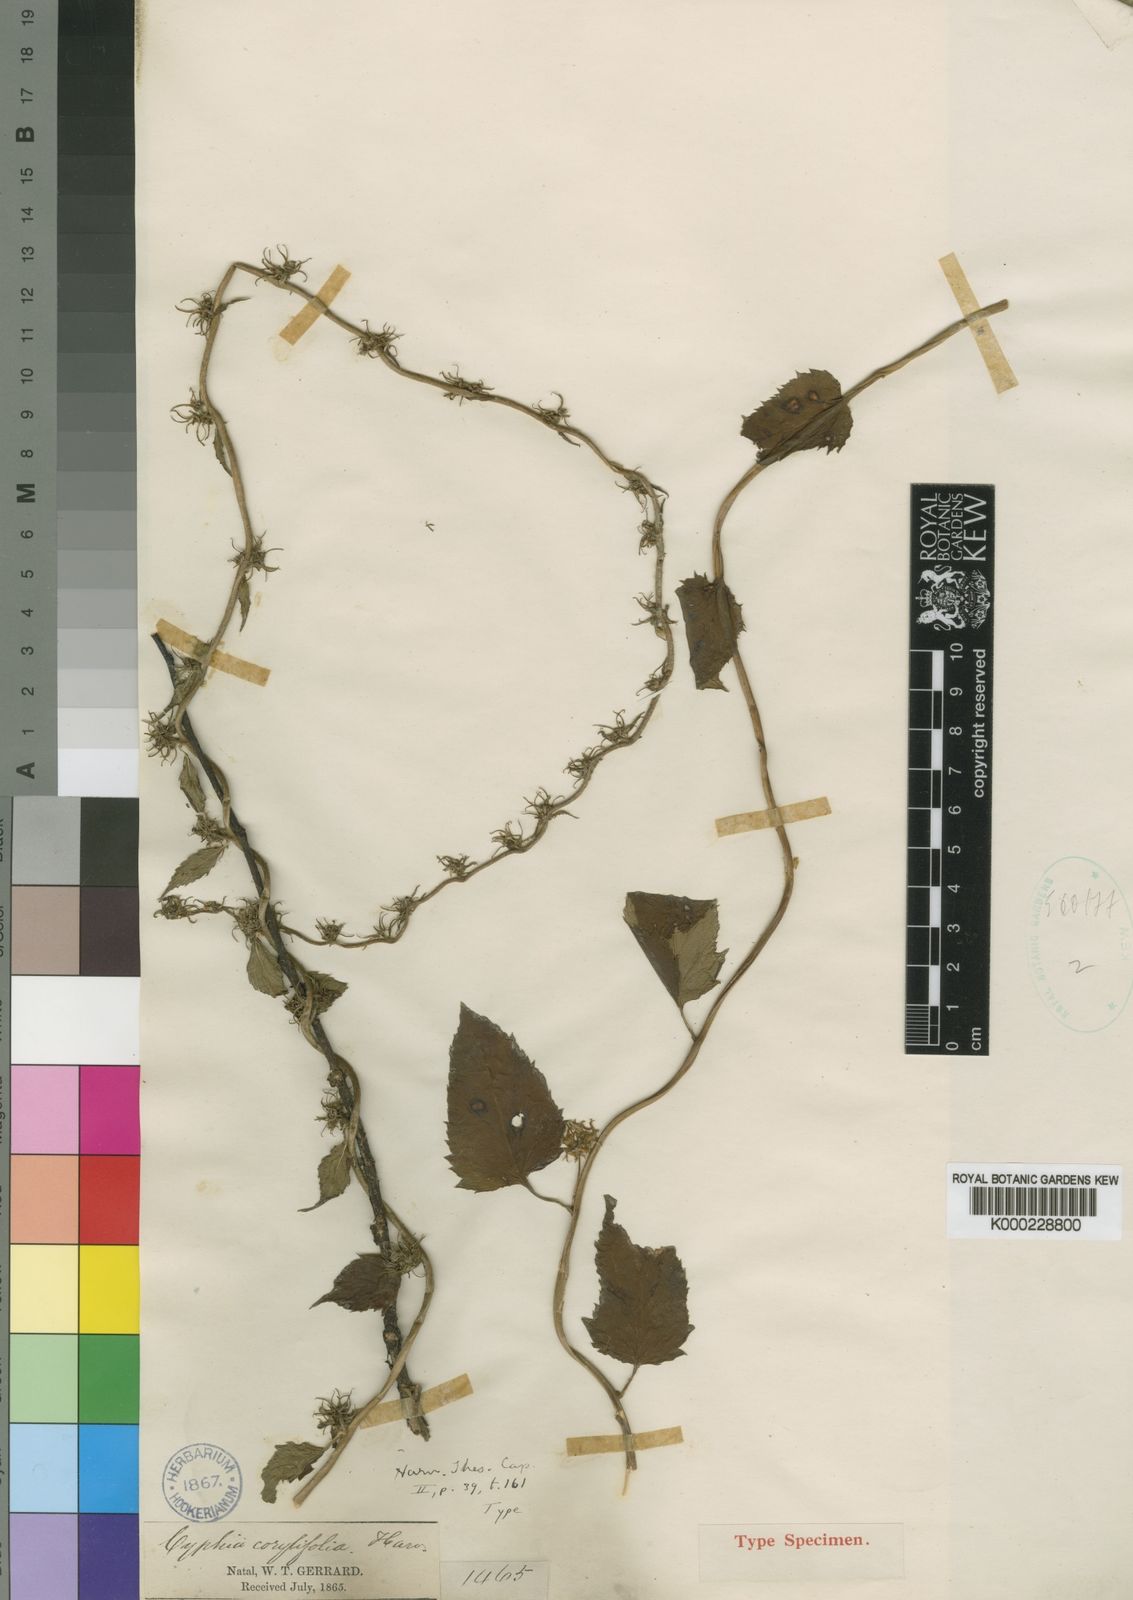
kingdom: Plantae
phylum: Tracheophyta
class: Magnoliopsida
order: Asterales
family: Campanulaceae
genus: Cyphia
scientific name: Cyphia corylifolia
